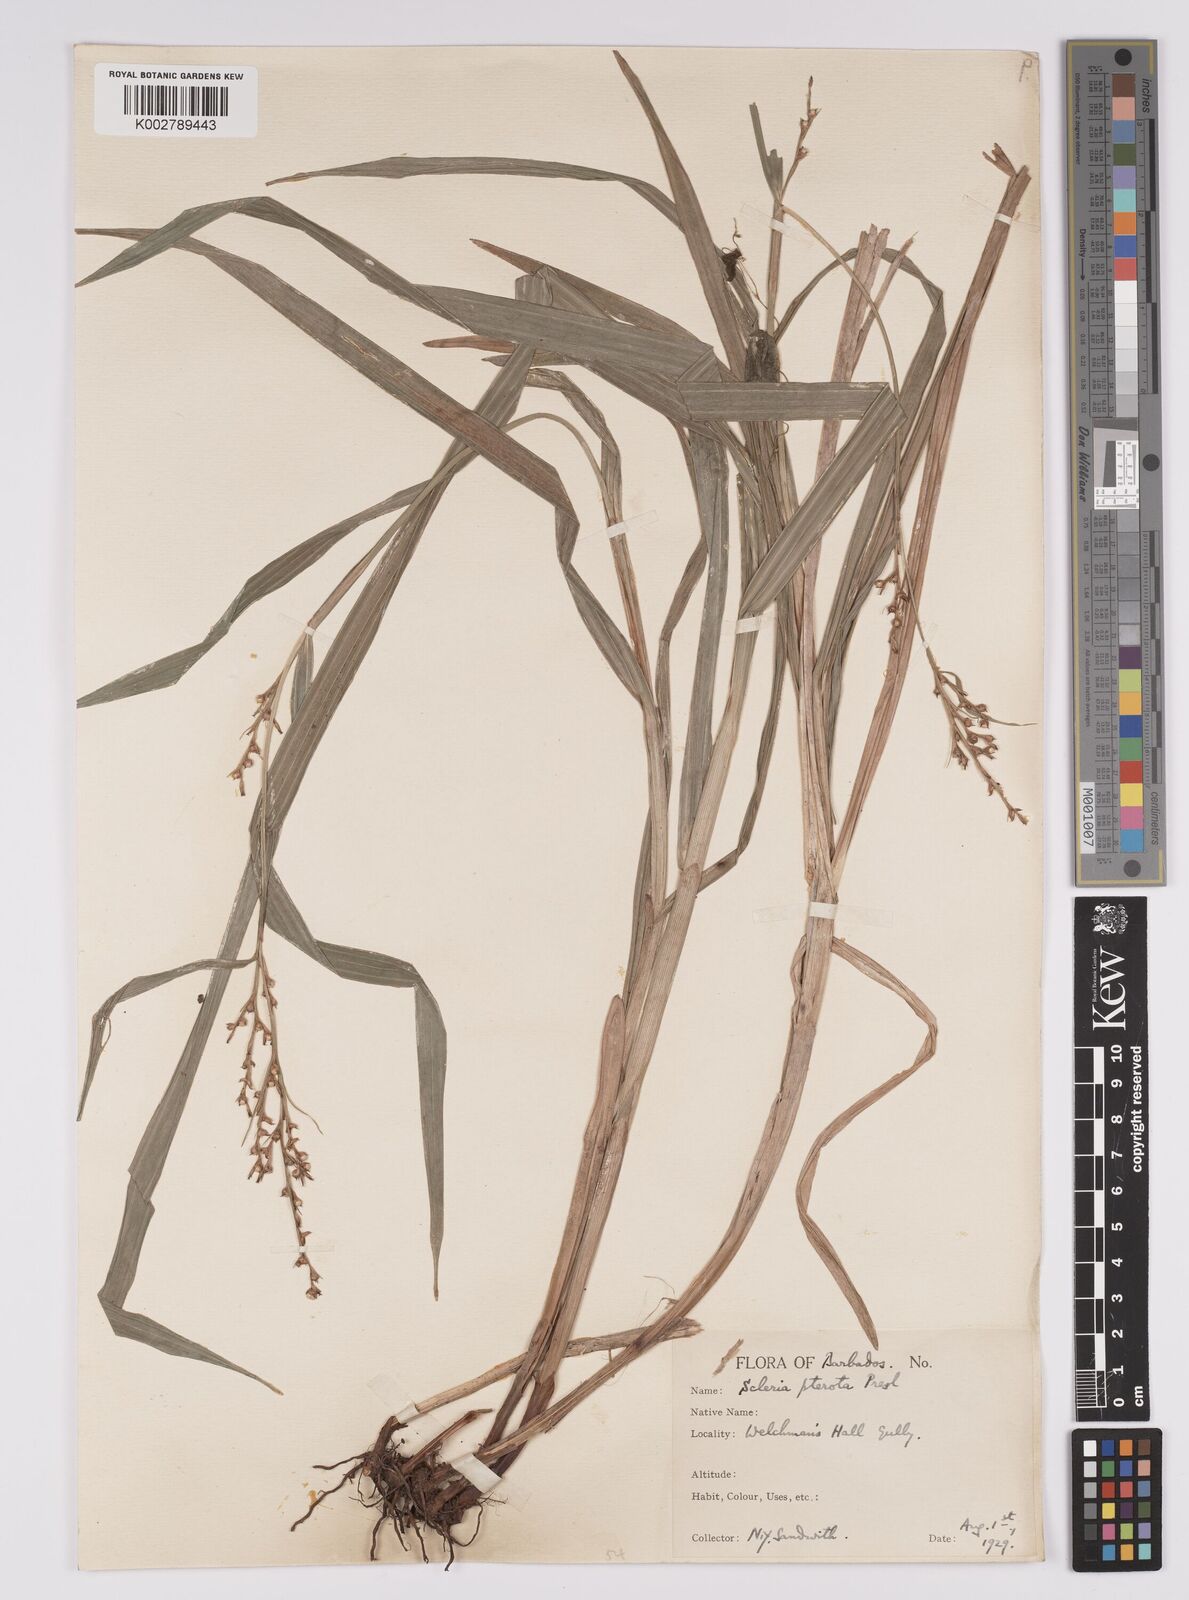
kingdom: Plantae
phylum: Tracheophyta
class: Liliopsida
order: Poales
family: Cyperaceae
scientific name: Cyperaceae
